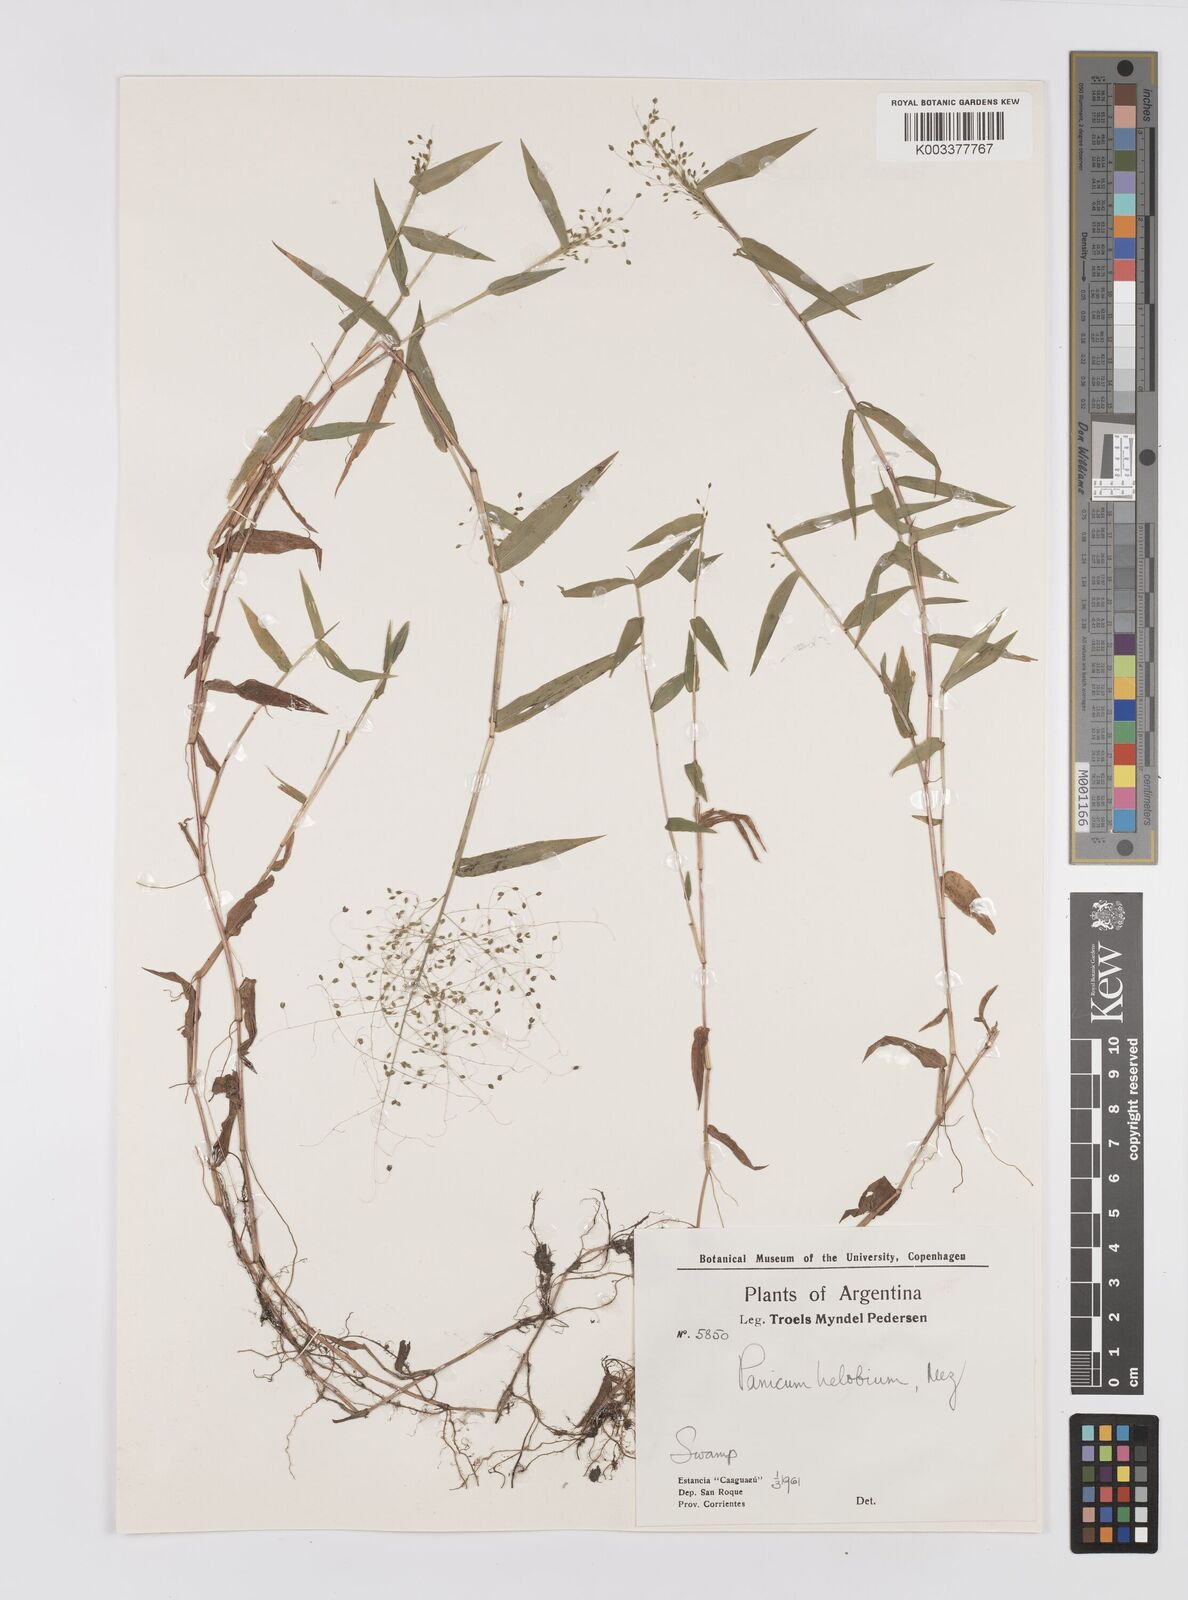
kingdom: Plantae
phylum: Tracheophyta
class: Liliopsida
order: Poales
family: Poaceae
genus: Trichanthecium
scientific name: Trichanthecium schwackeanum
